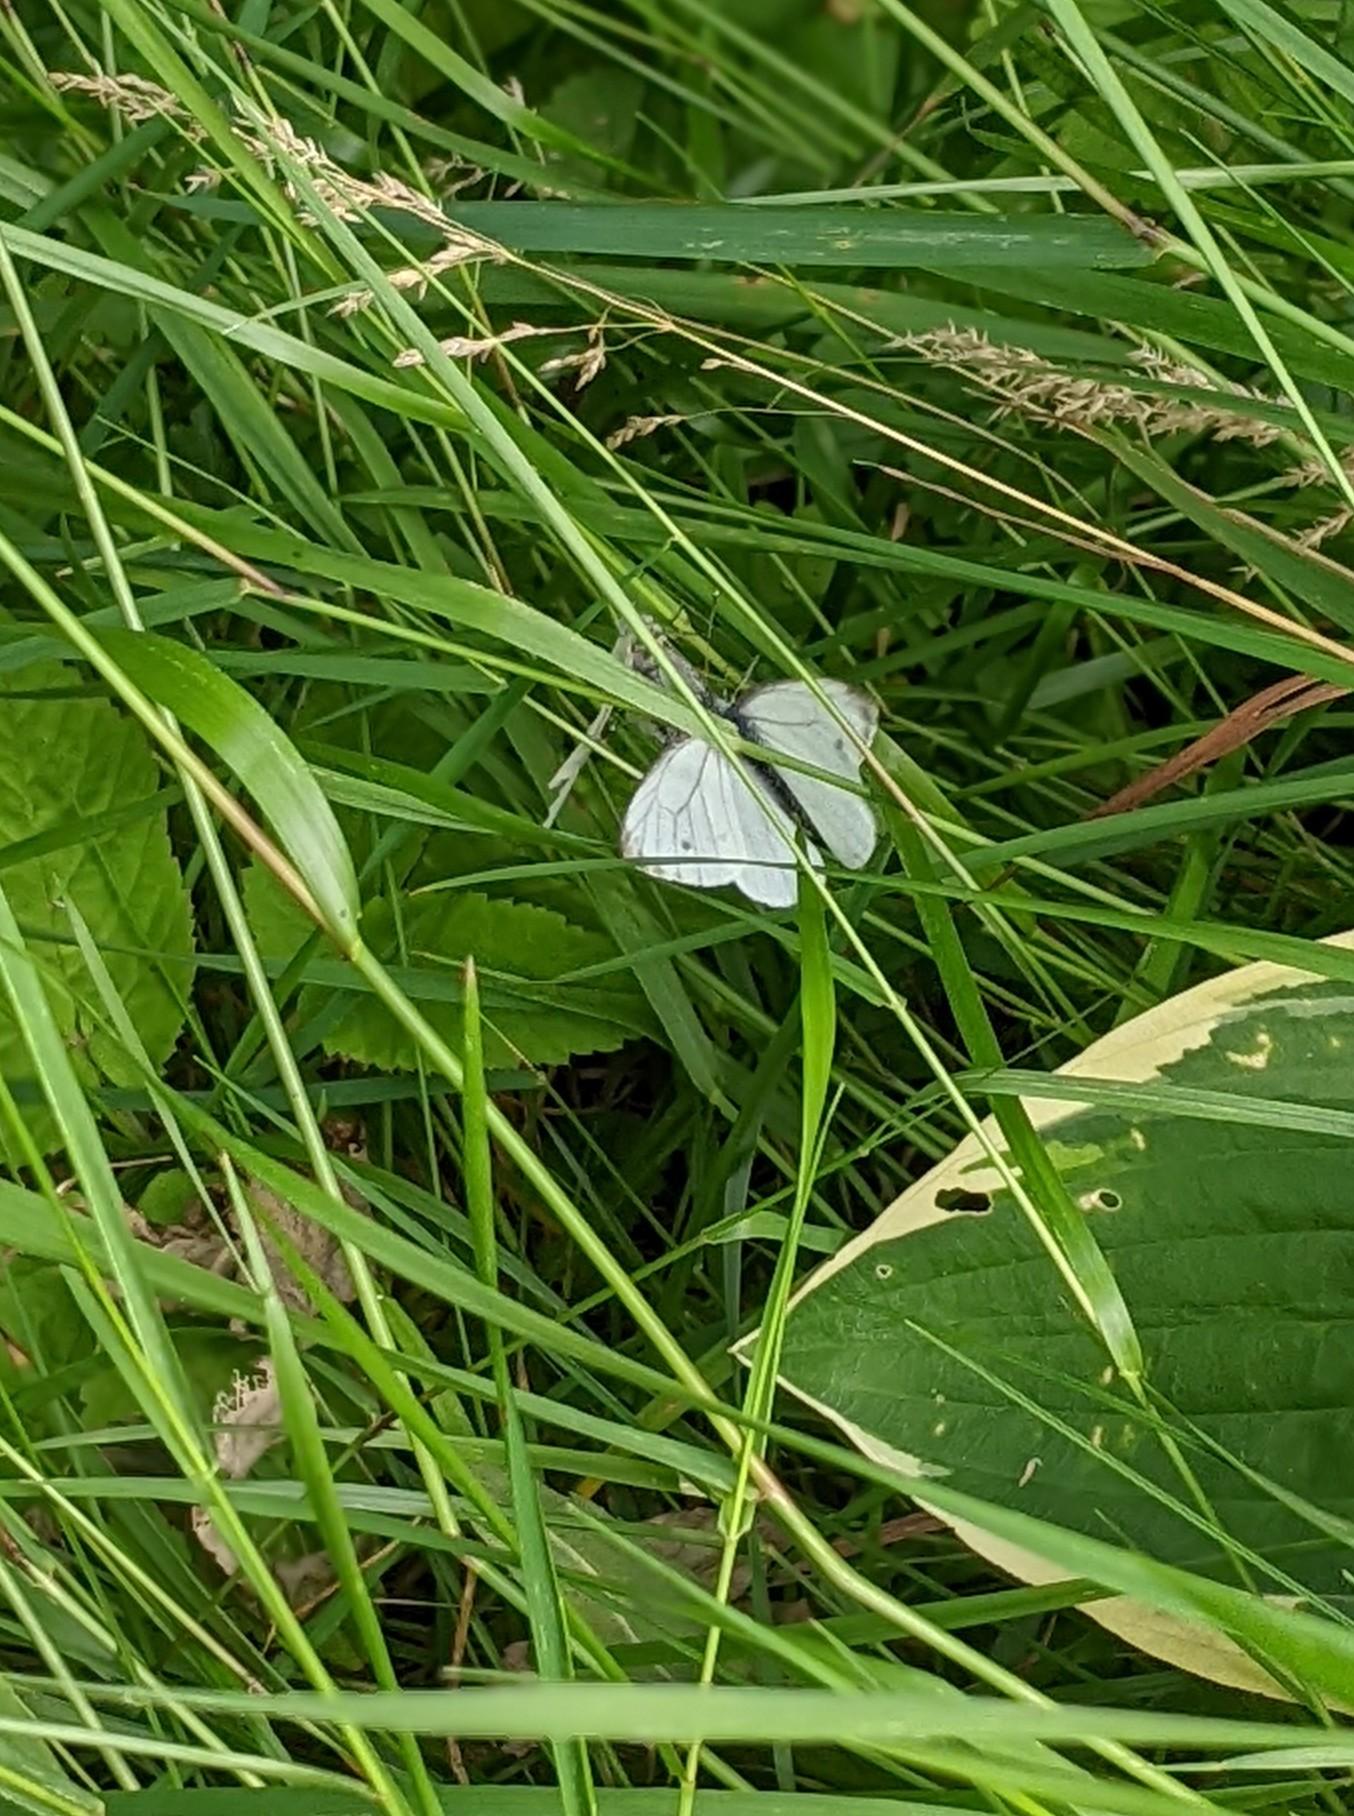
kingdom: Animalia
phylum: Arthropoda
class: Insecta
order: Lepidoptera
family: Pieridae
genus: Pieris
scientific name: Pieris napi
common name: Grønåret kålsommerfugl
